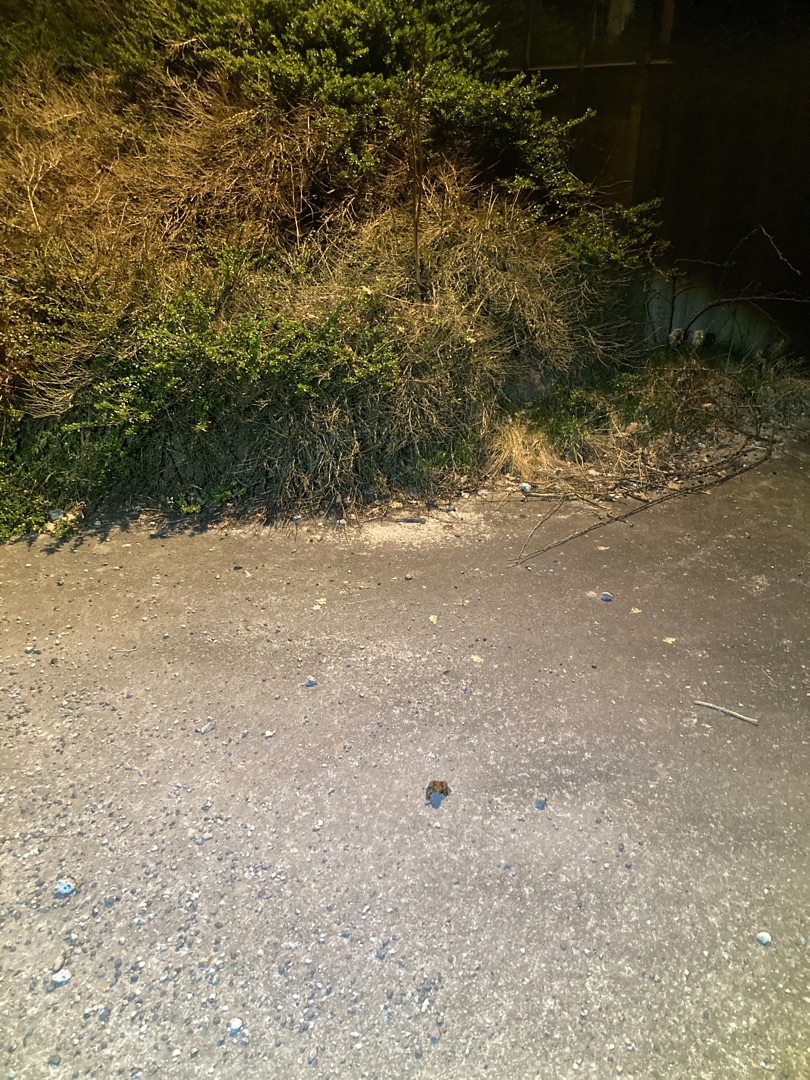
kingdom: Animalia
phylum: Chordata
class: Amphibia
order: Anura
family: Bufonidae
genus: Bufo
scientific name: Bufo bufo
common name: Skrubtudse
